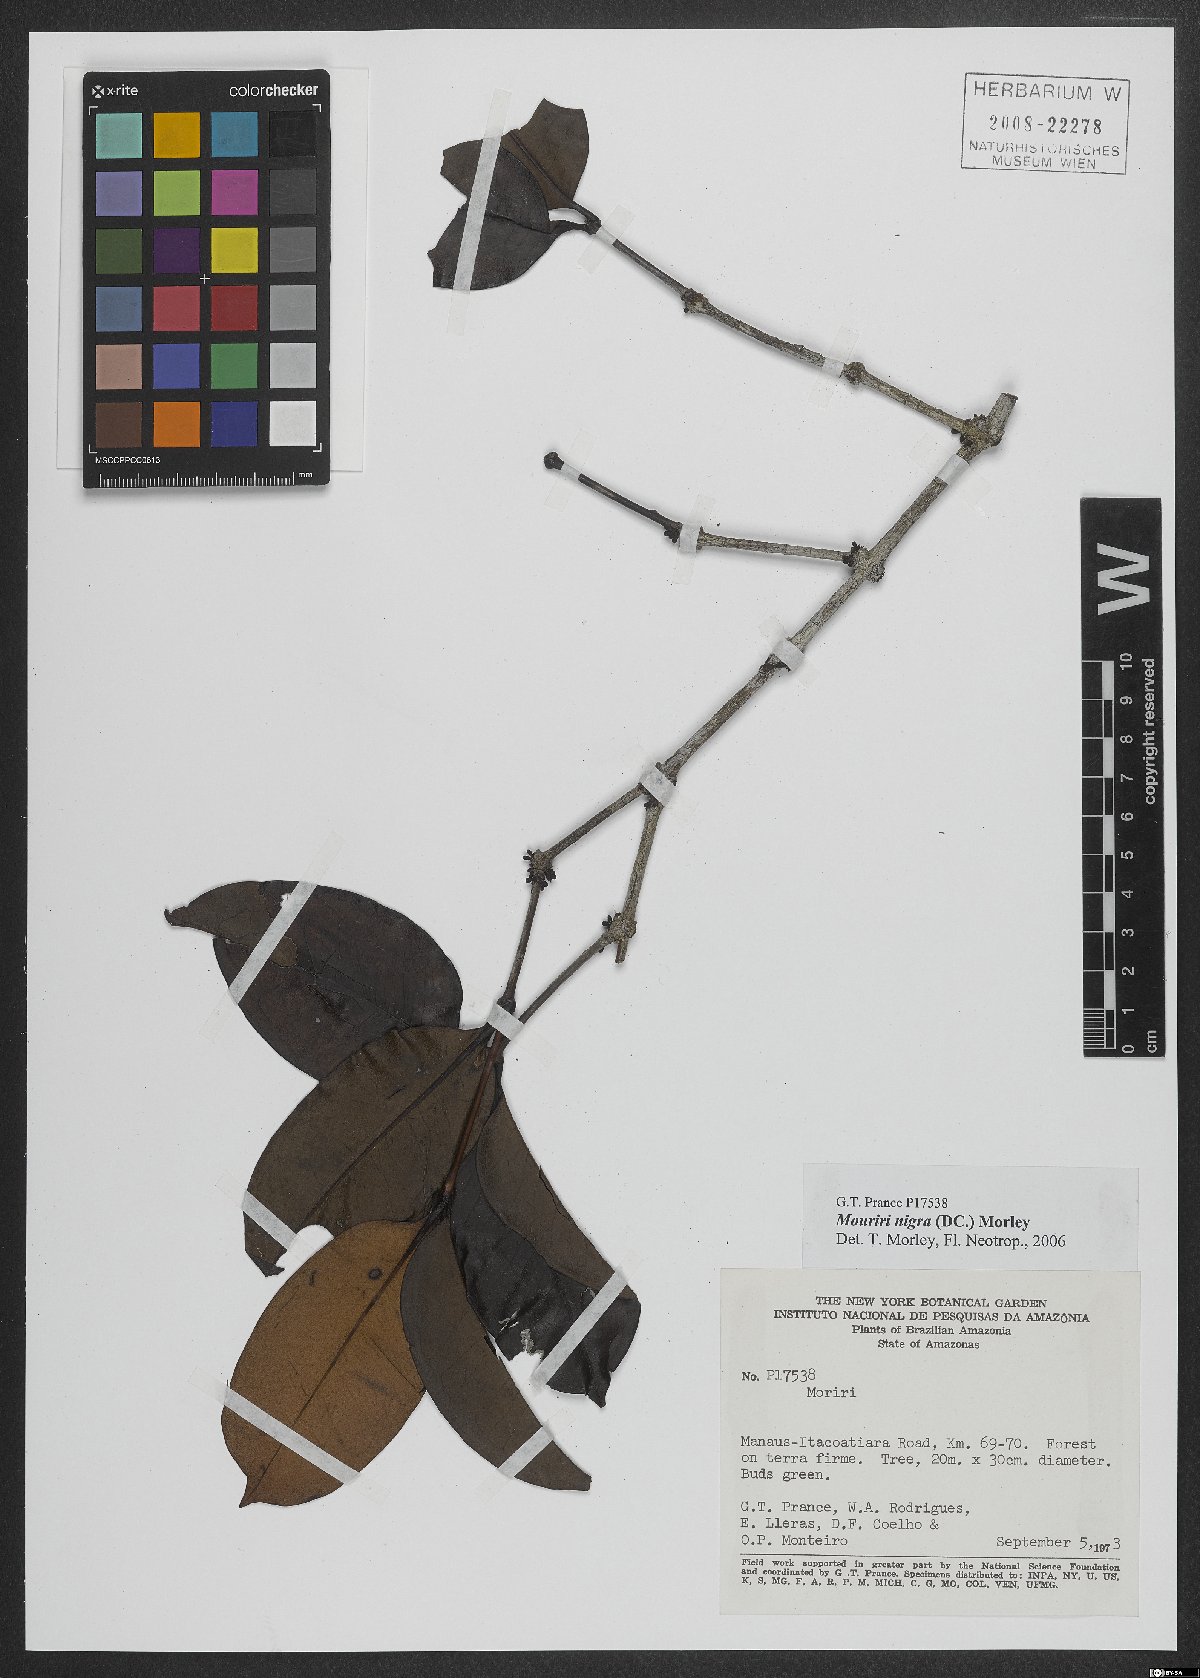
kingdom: Plantae
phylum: Tracheophyta
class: Magnoliopsida
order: Myrtales
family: Melastomataceae
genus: Mouriri
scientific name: Mouriri nigra
